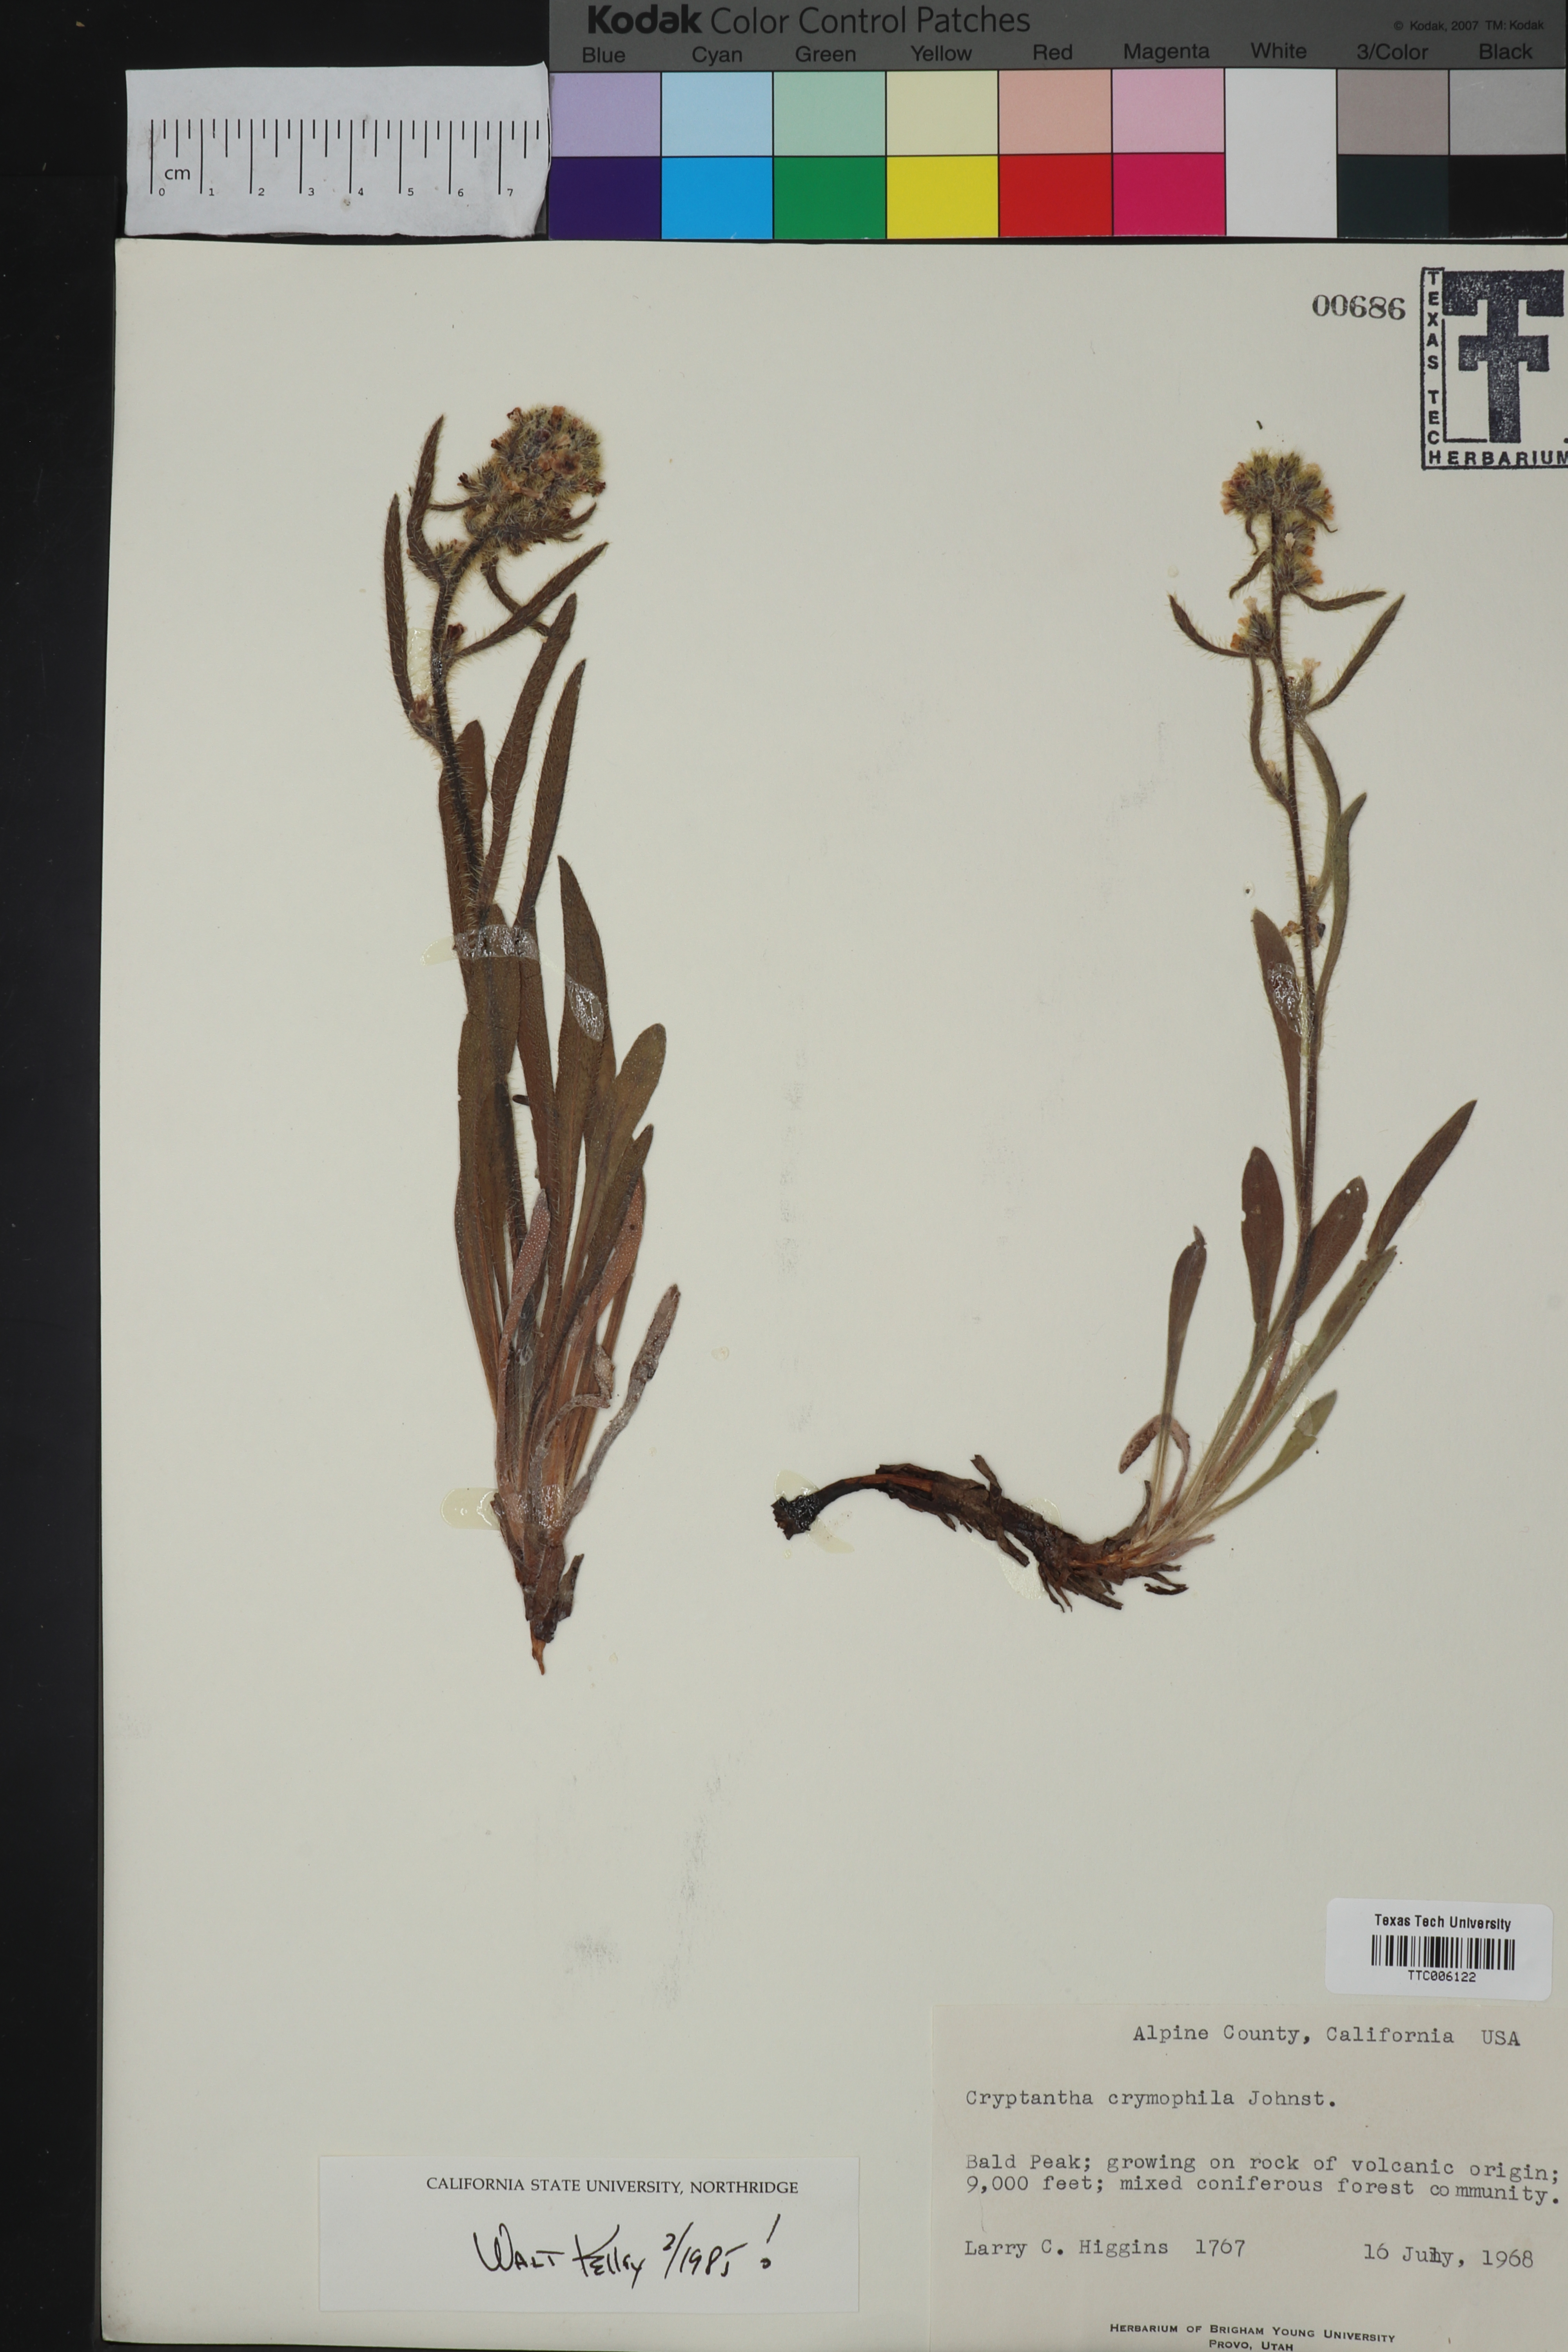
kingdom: Plantae
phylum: Tracheophyta
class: Magnoliopsida
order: Boraginales
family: Boraginaceae
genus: Oreocarya
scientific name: Oreocarya crymophila
